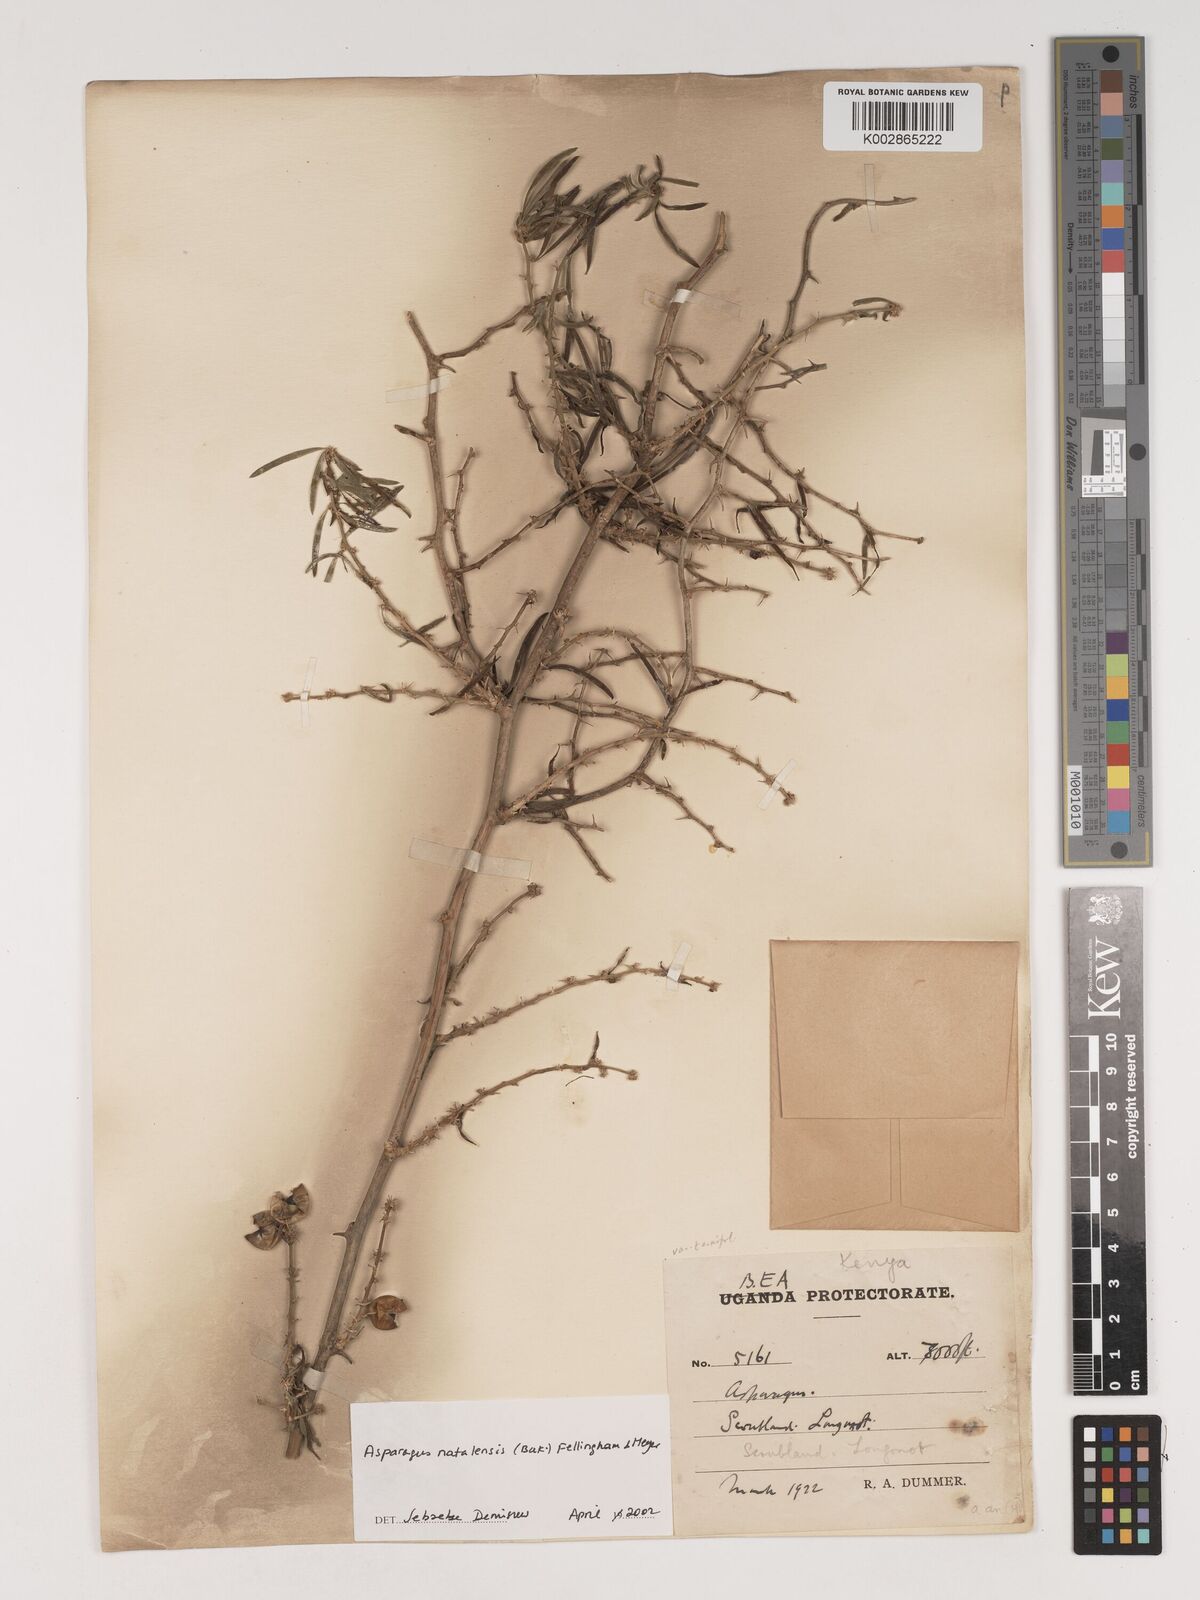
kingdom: Plantae
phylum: Tracheophyta
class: Liliopsida
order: Asparagales
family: Asparagaceae
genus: Asparagus
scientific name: Asparagus natalensis
